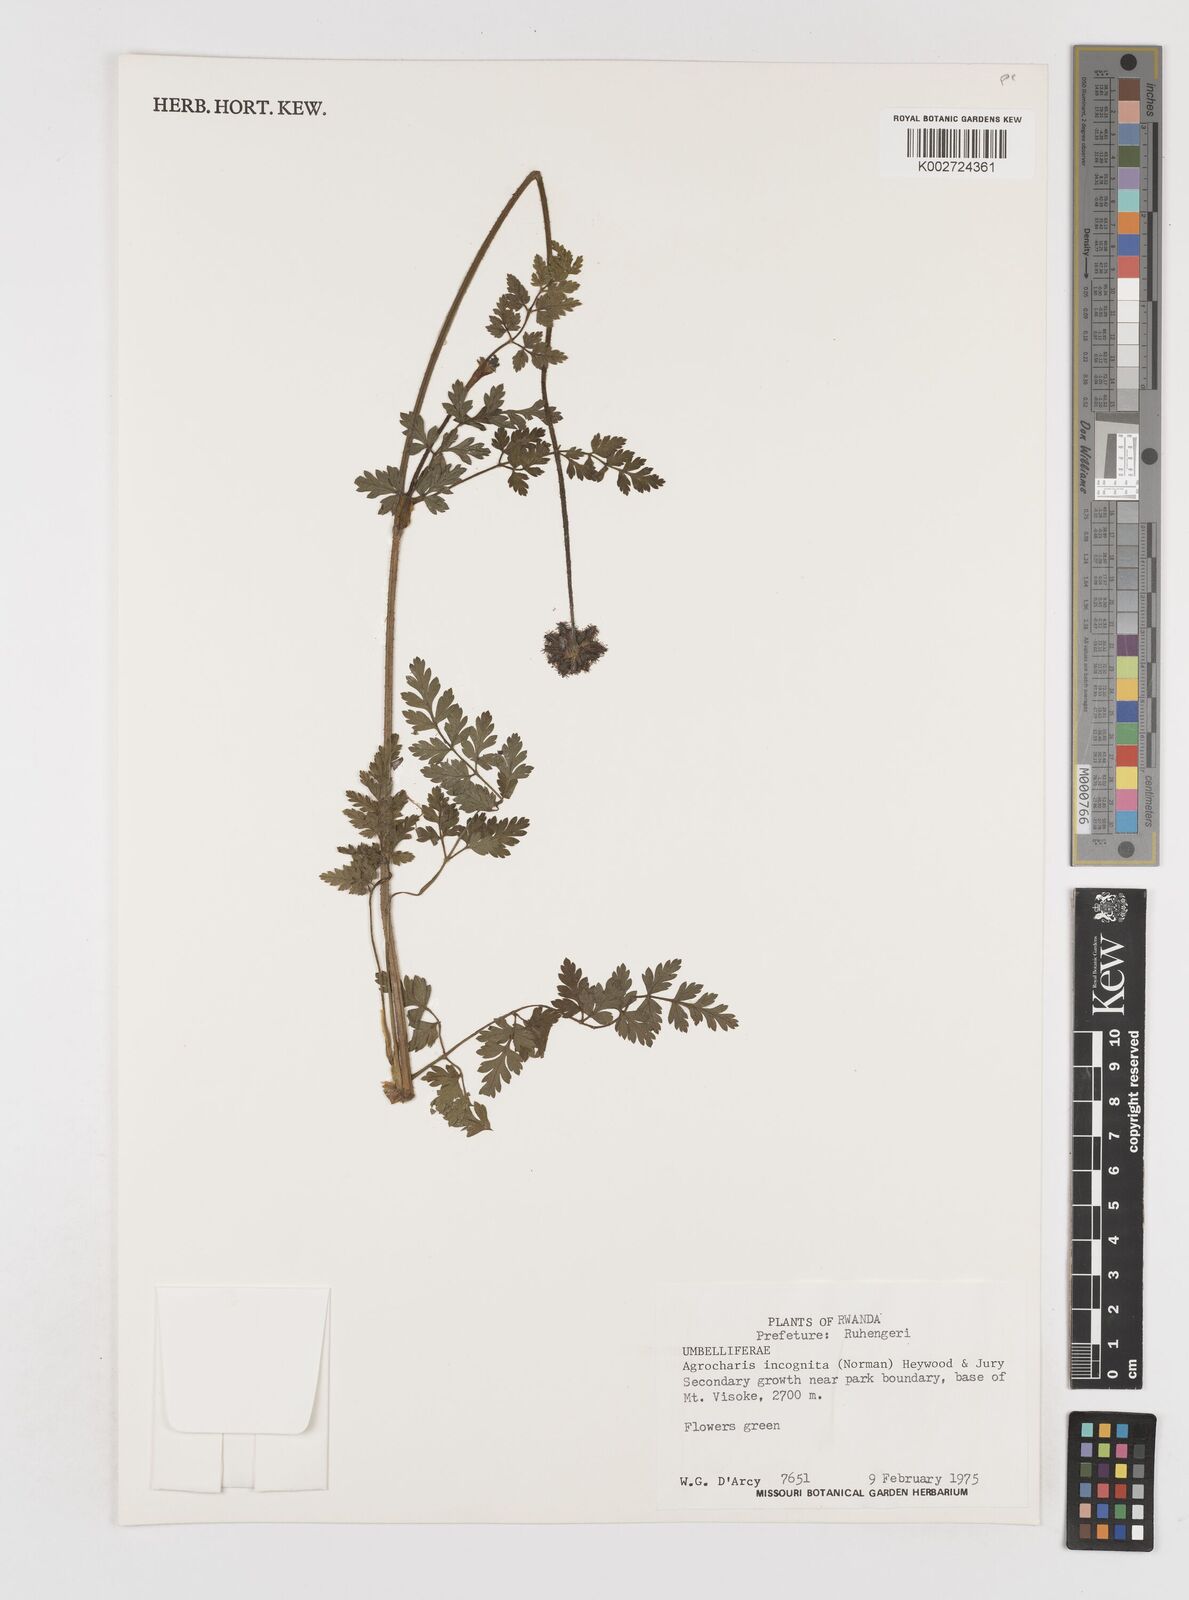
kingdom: Plantae
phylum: Tracheophyta
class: Magnoliopsida
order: Apiales
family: Apiaceae
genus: Daucus
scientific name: Daucus incognitus
